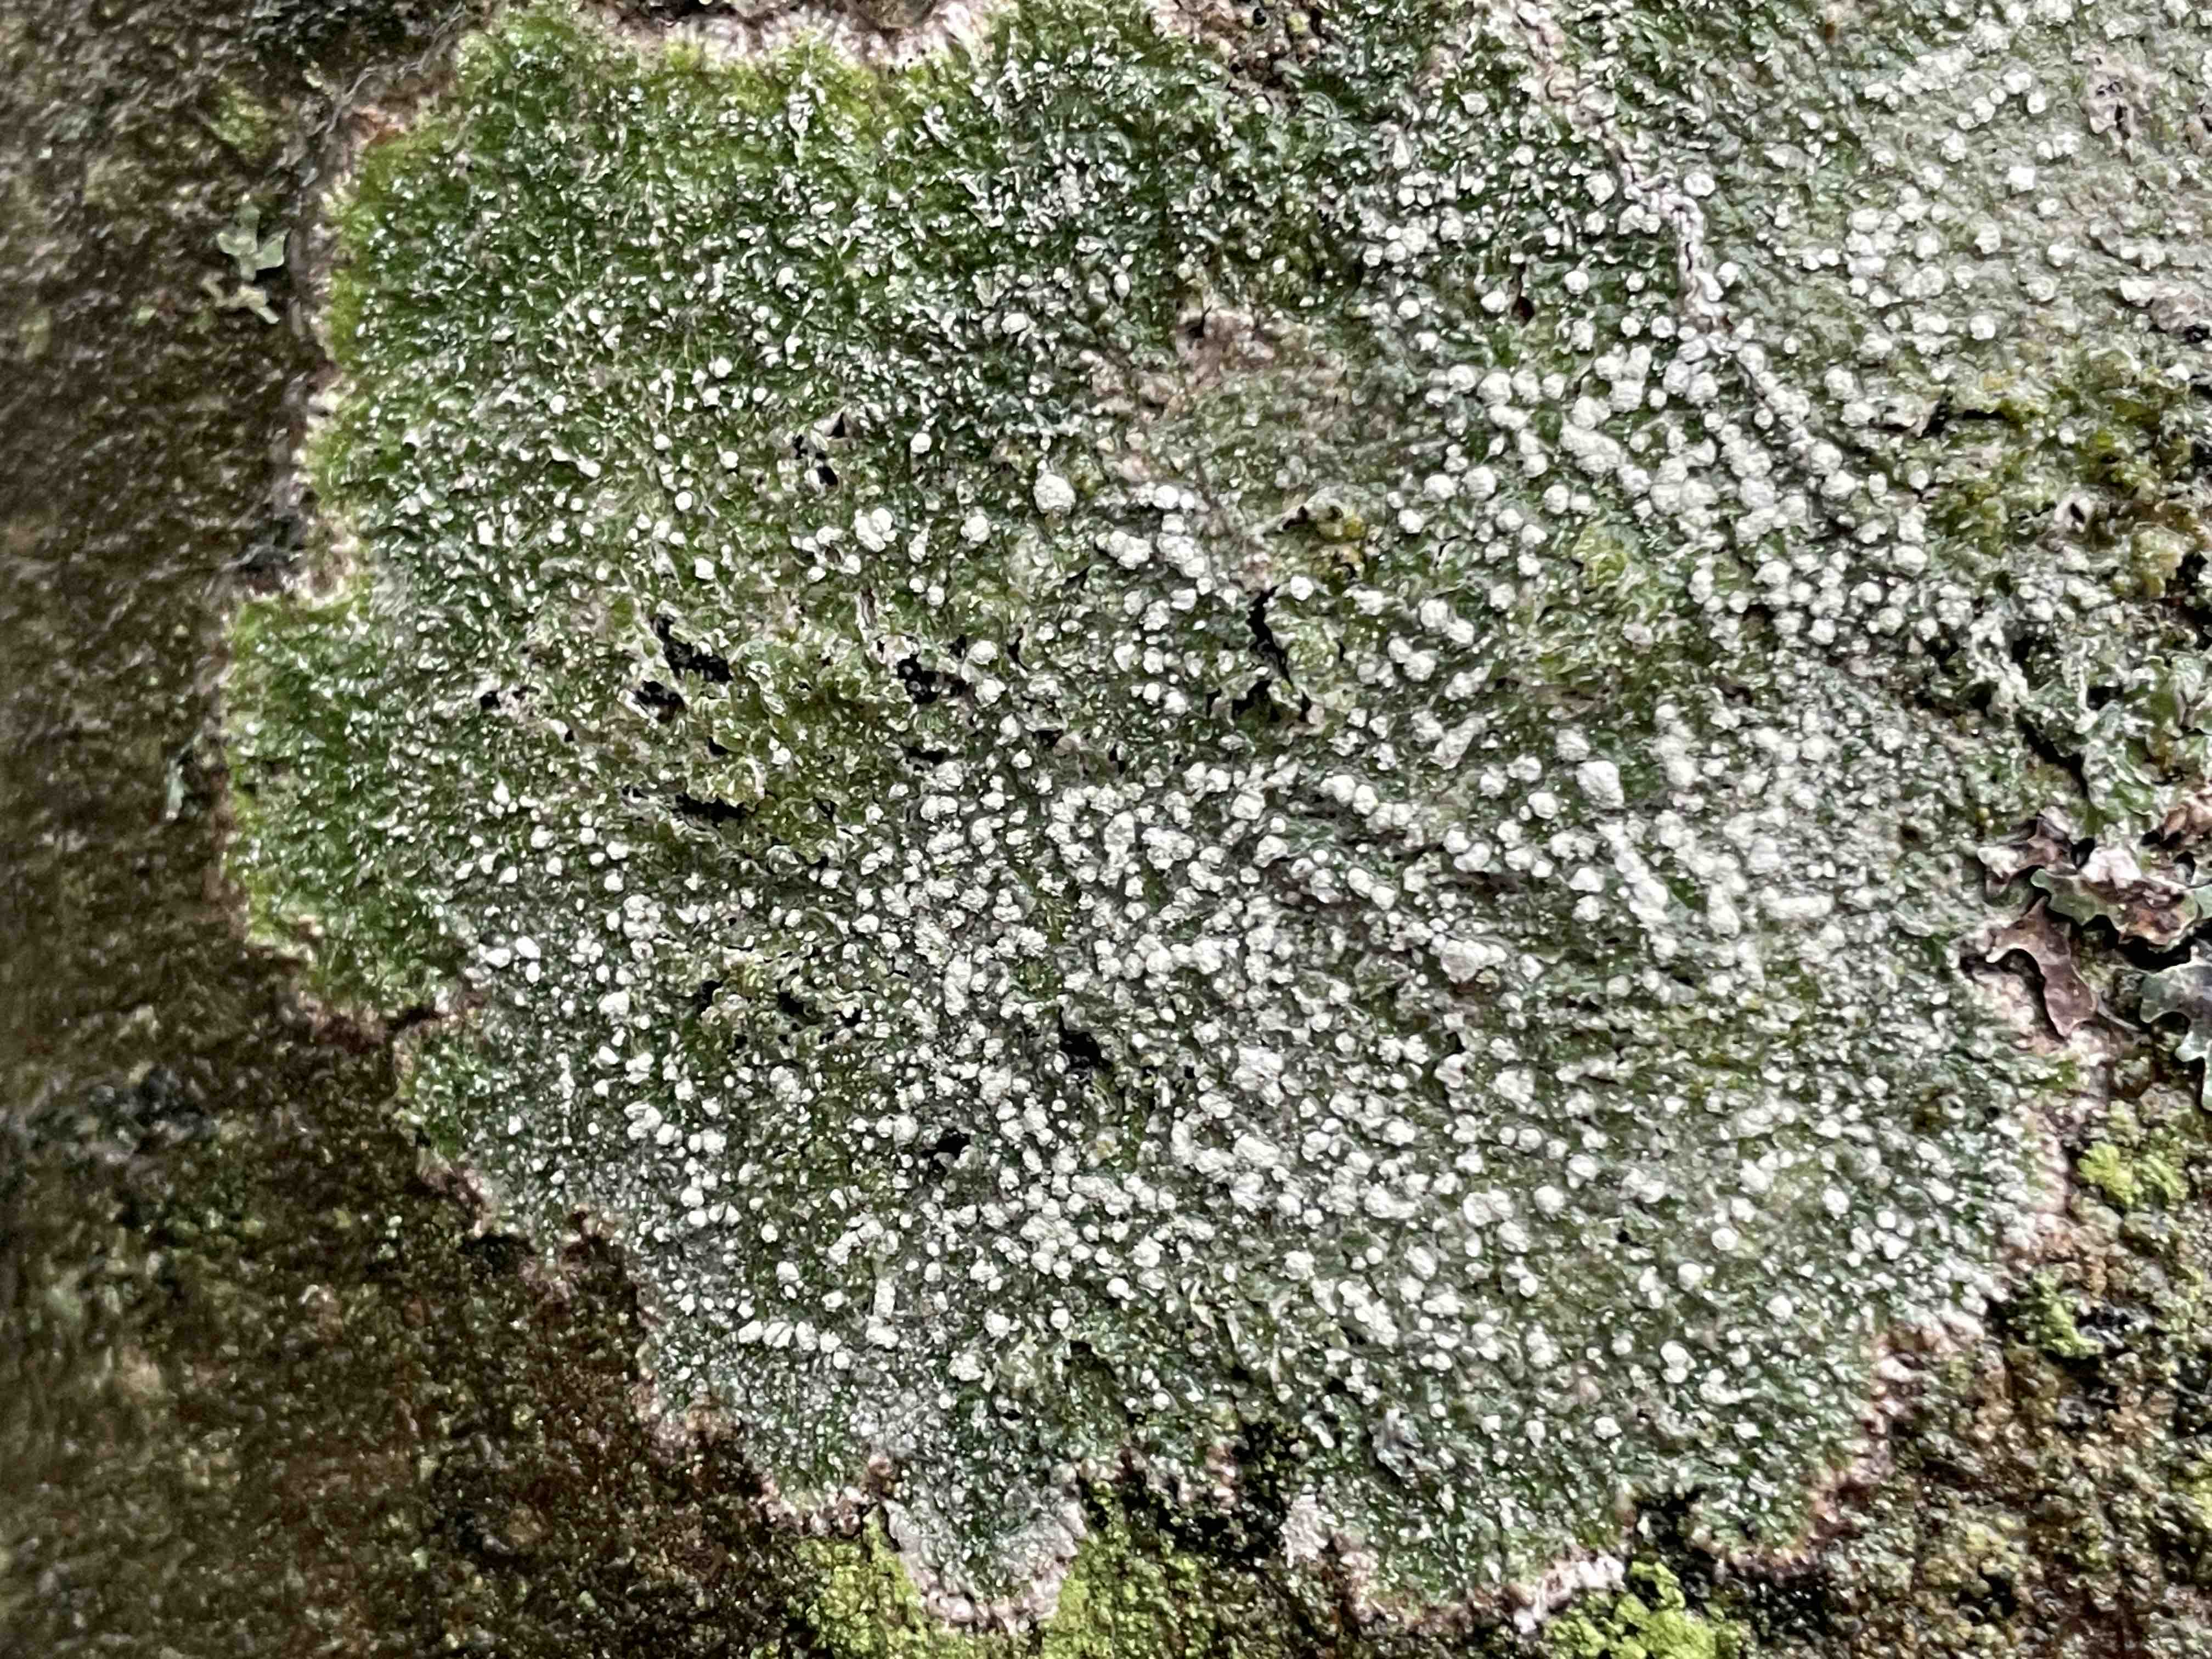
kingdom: Fungi
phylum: Ascomycota
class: Lecanoromycetes
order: Pertusariales
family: Pertusariaceae
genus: Lepra
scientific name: Lepra amara
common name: bitter prikvortelav
